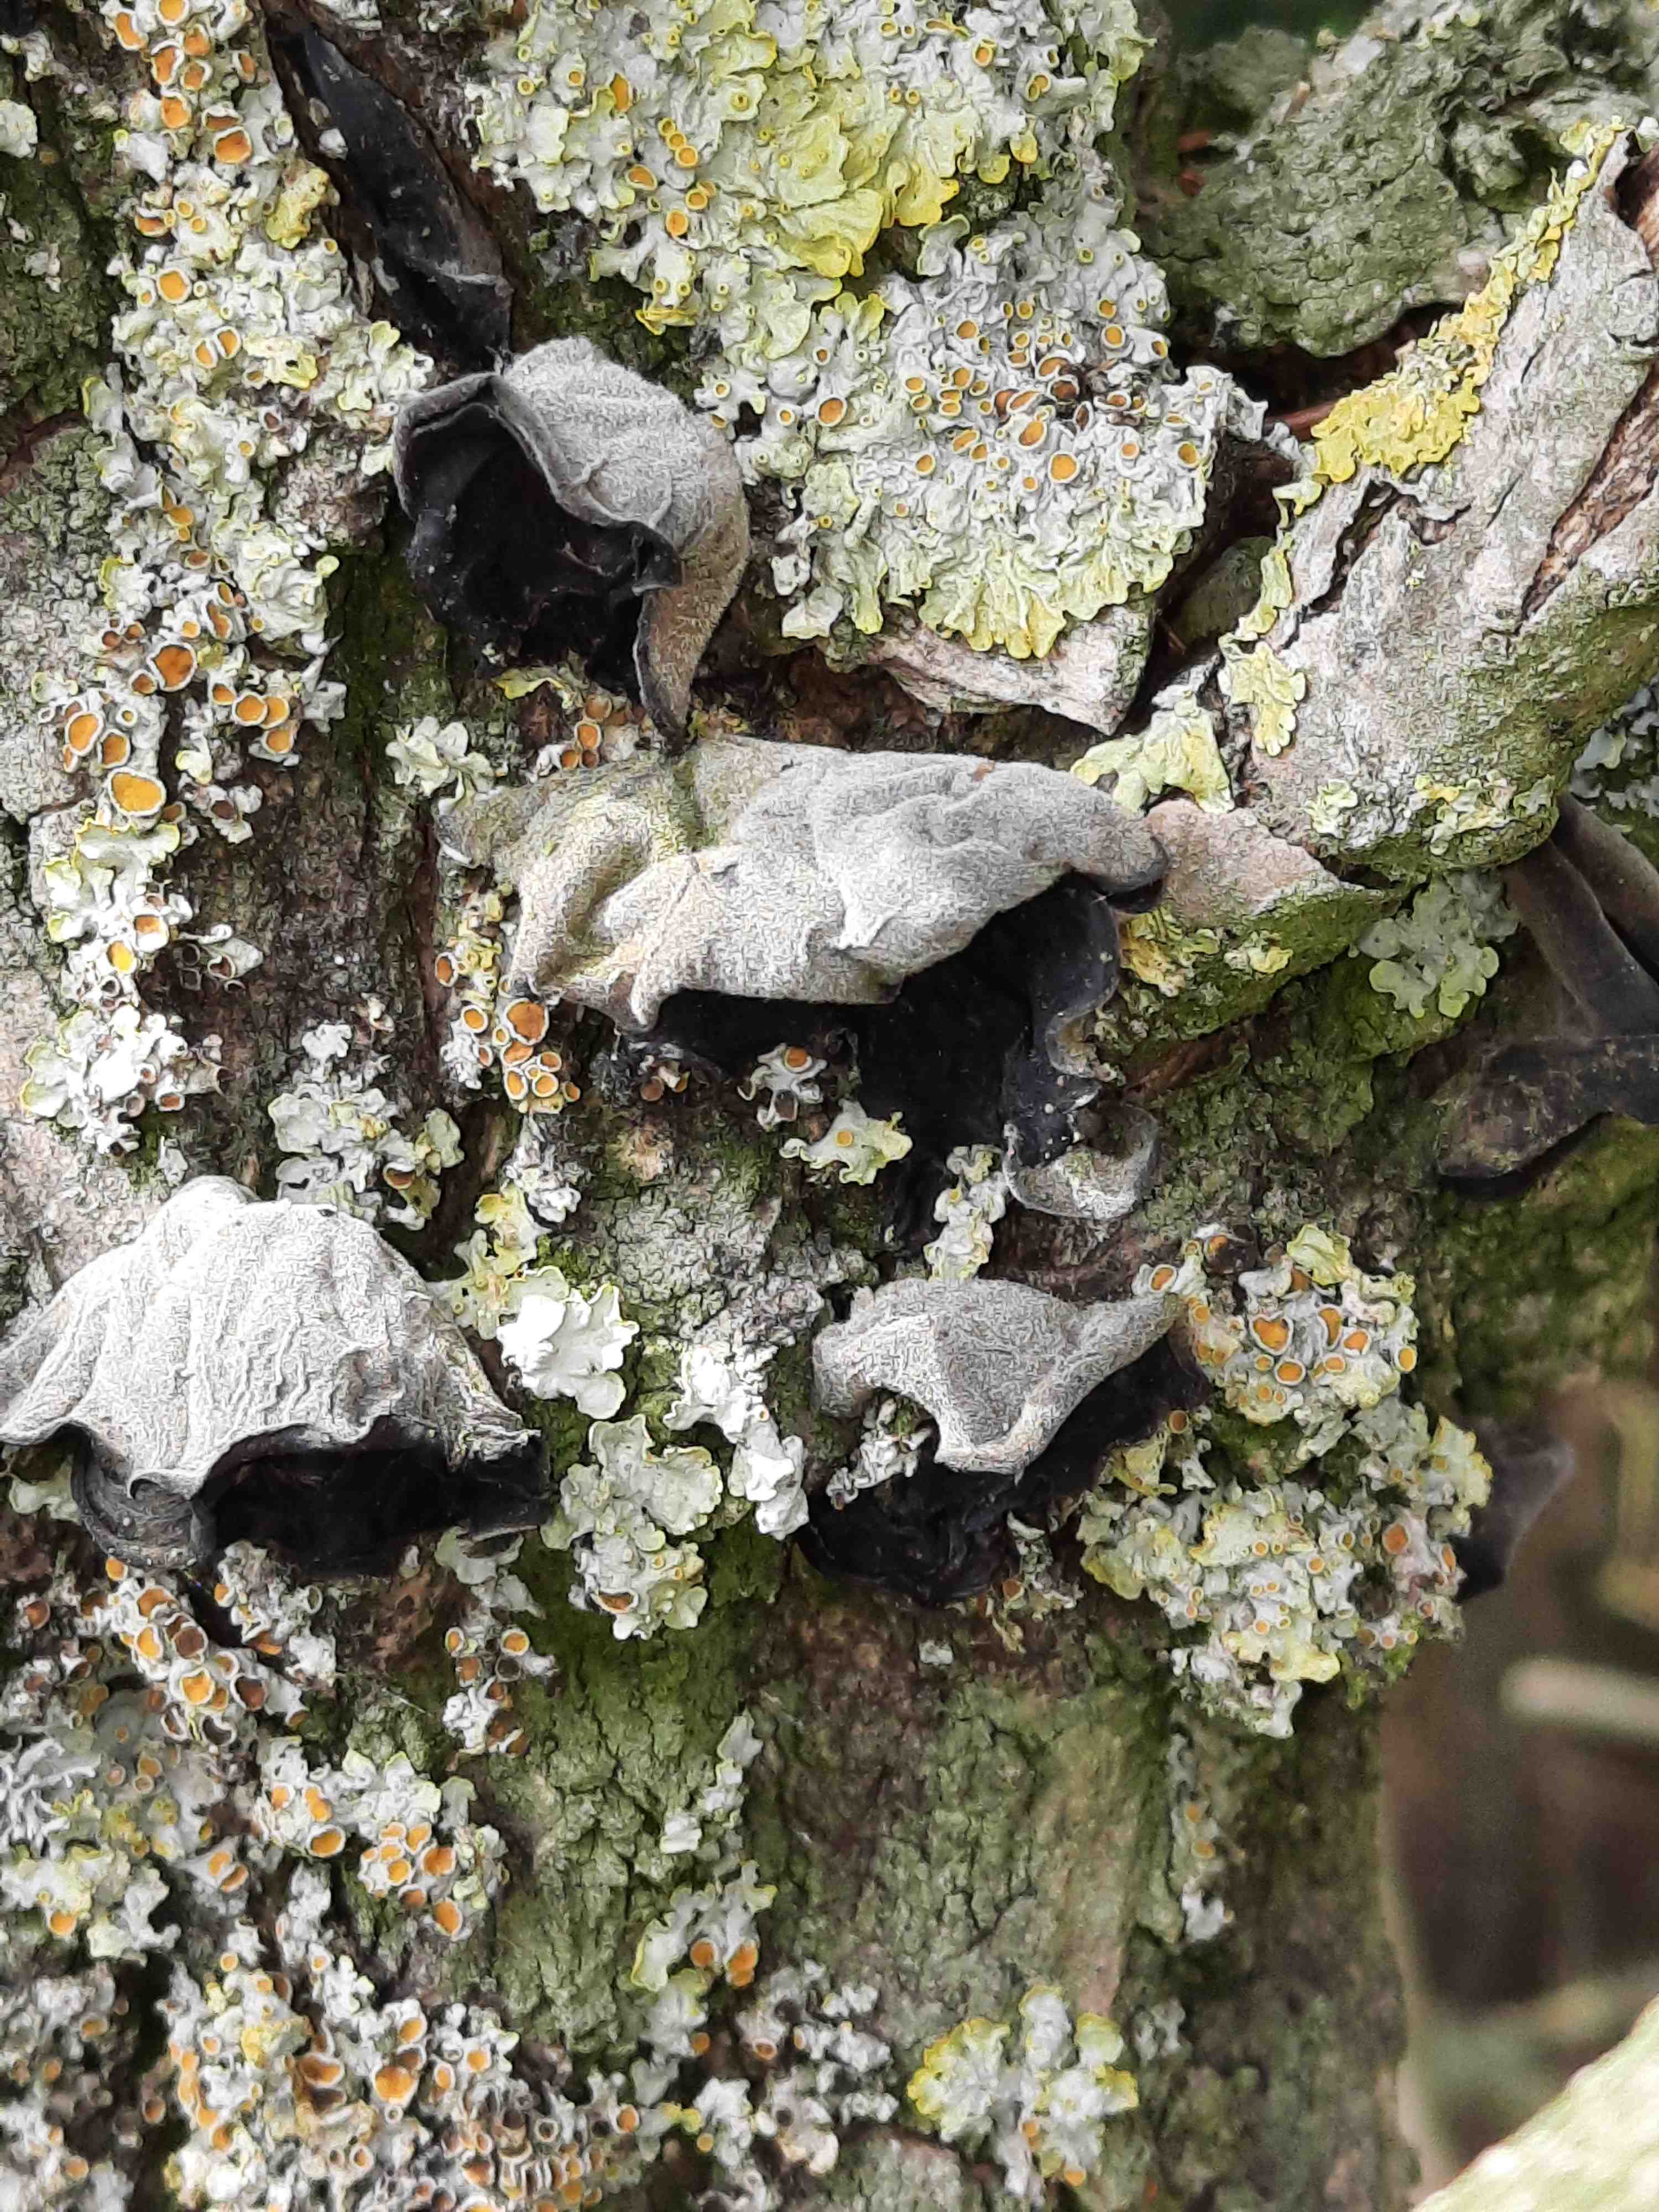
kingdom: Fungi
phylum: Basidiomycota
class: Agaricomycetes
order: Auriculariales
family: Auriculariaceae
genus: Auricularia
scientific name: Auricularia auricula-judae
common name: almindelig judasøre
